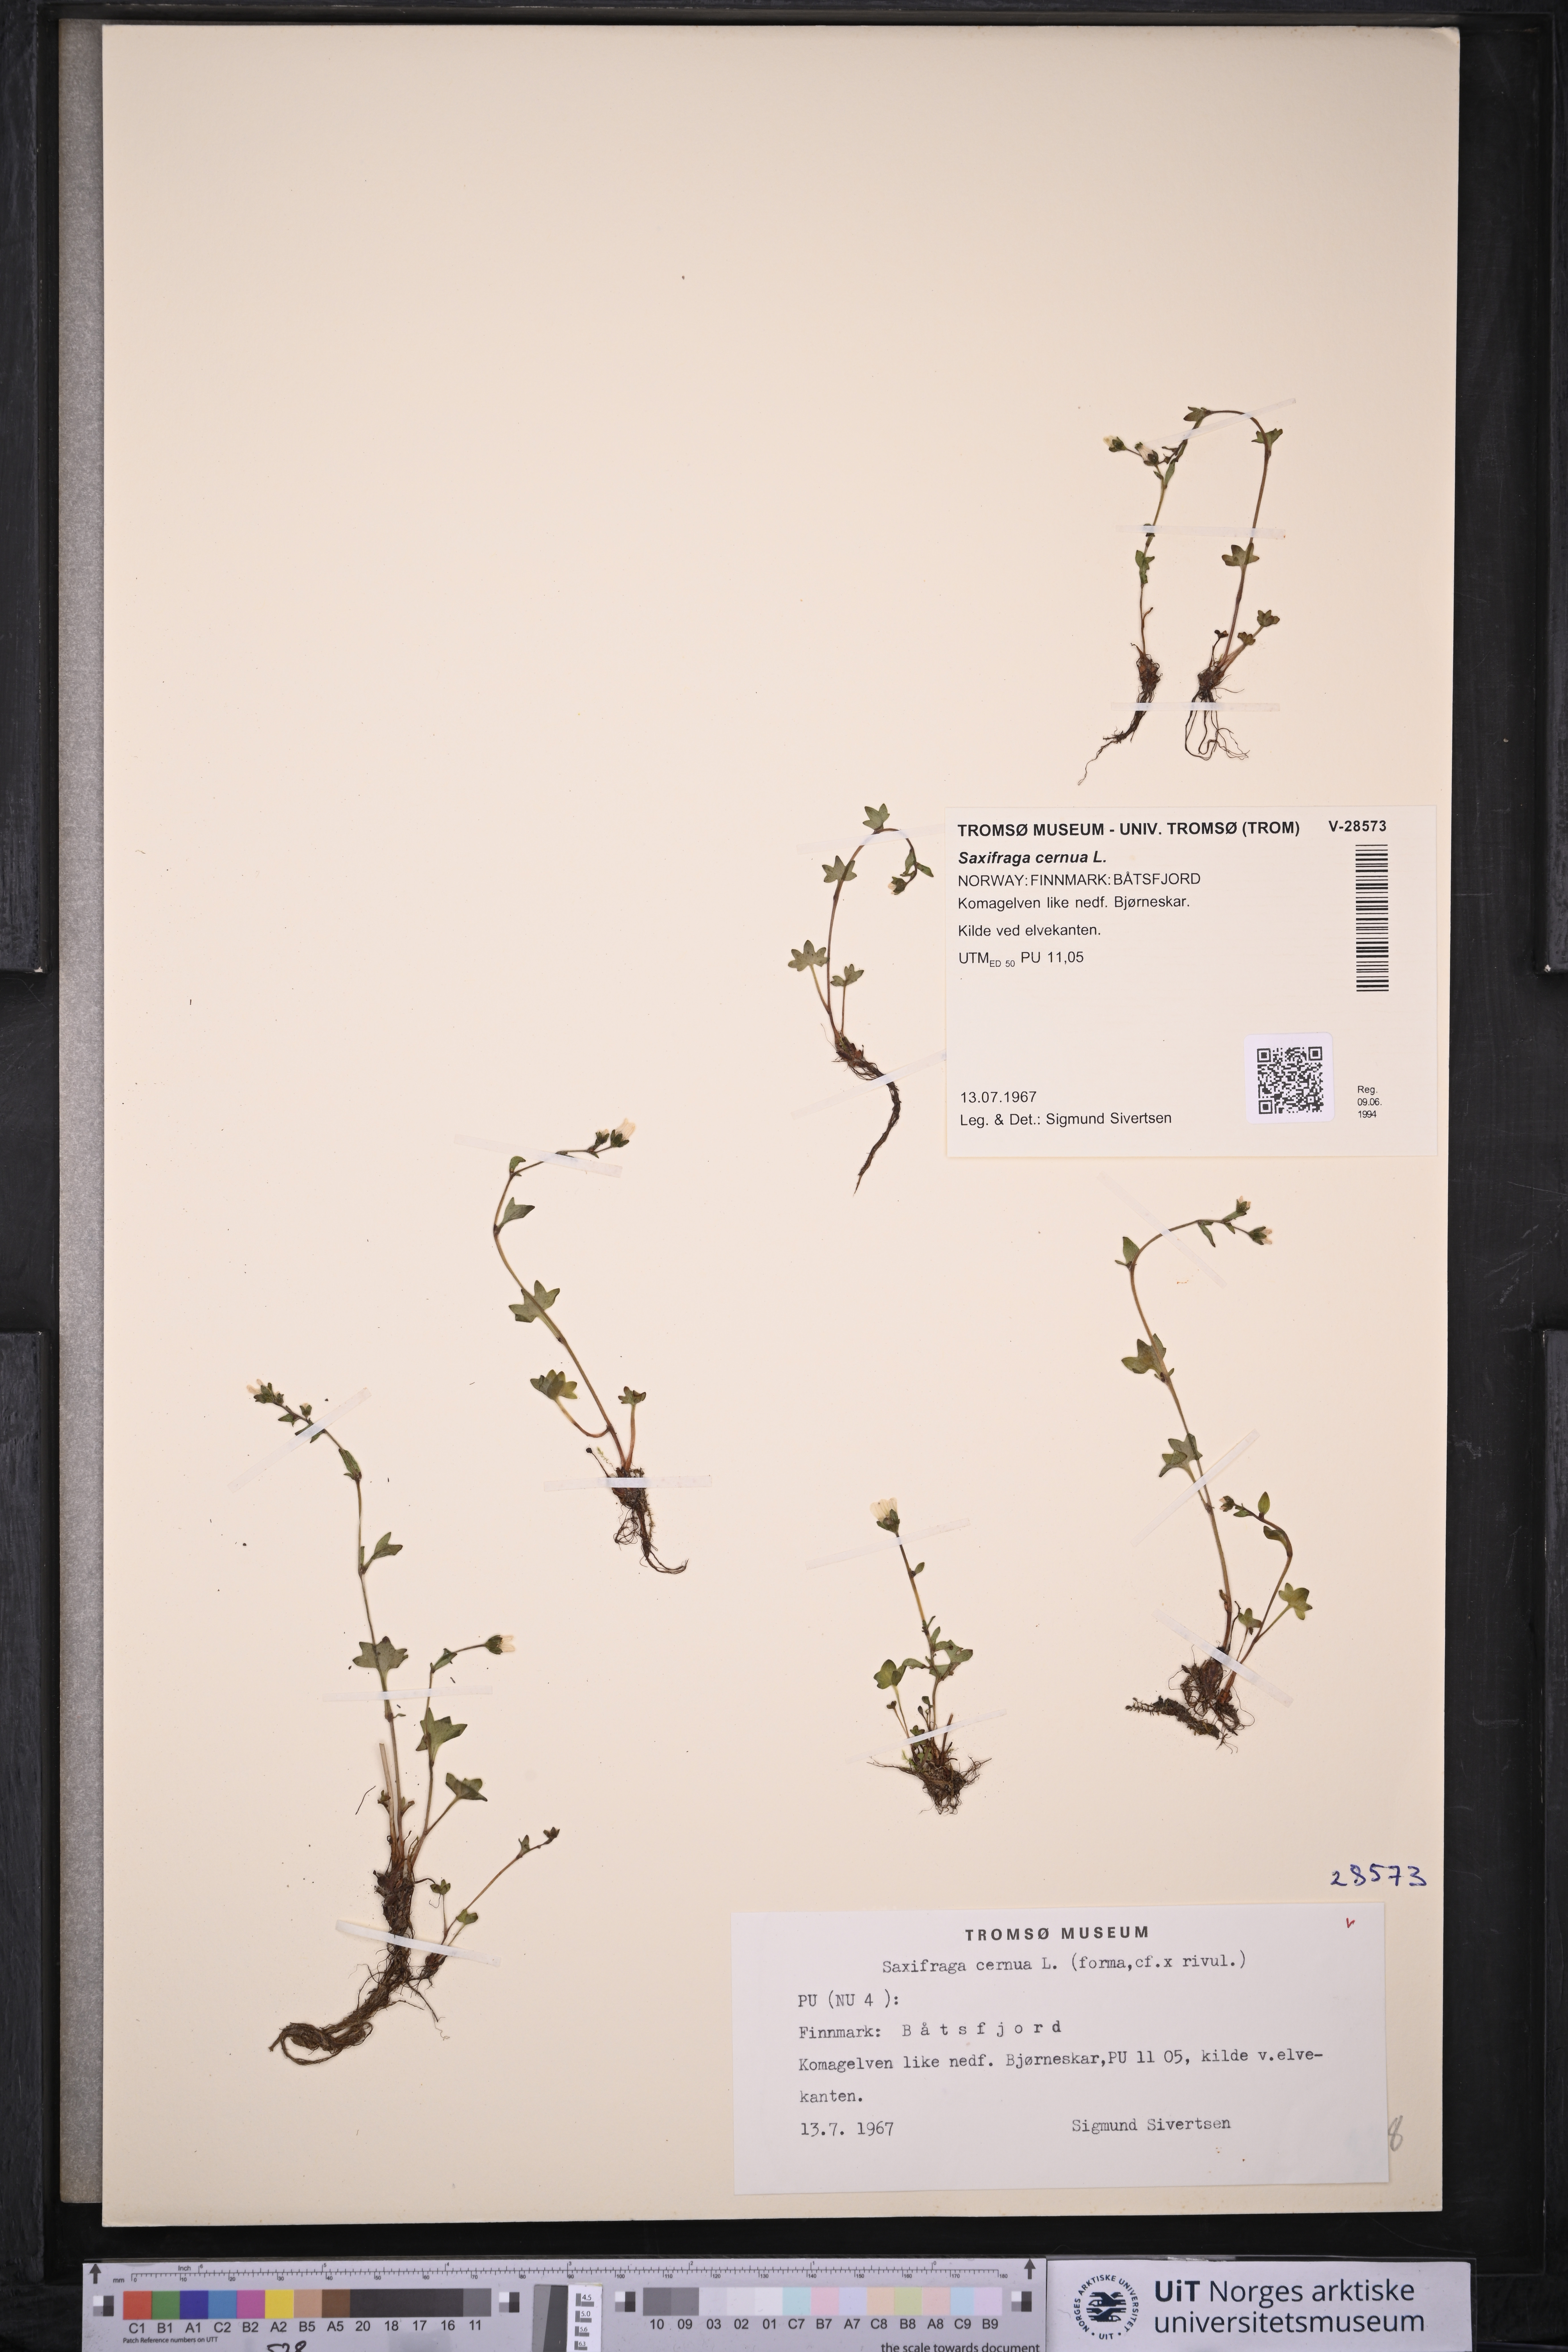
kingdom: Plantae
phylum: Tracheophyta
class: Magnoliopsida
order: Saxifragales
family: Saxifragaceae
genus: Saxifraga
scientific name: Saxifraga cernua
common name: Drooping saxifrage
